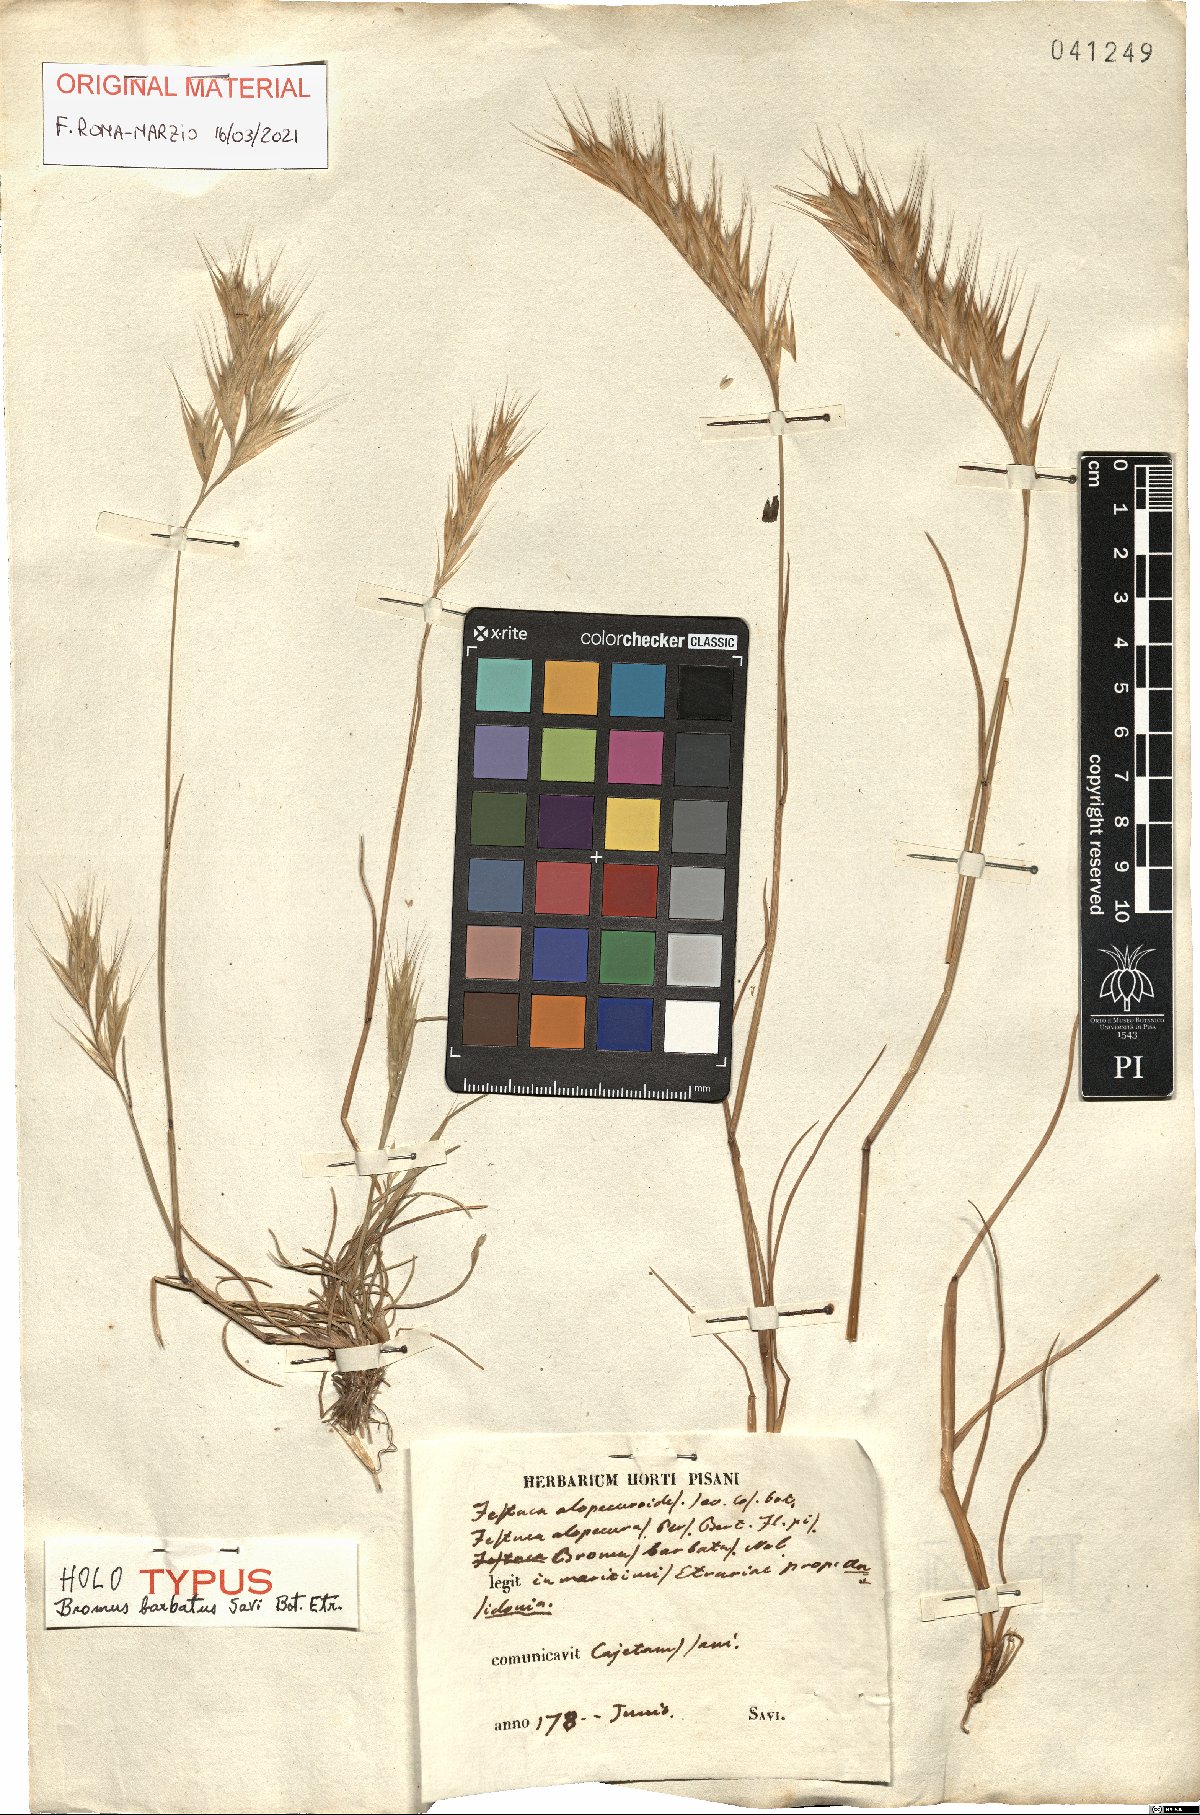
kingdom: Plantae
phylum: Tracheophyta
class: Liliopsida
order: Poales
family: Poaceae
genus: Festuca
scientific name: Festuca alopecuros
